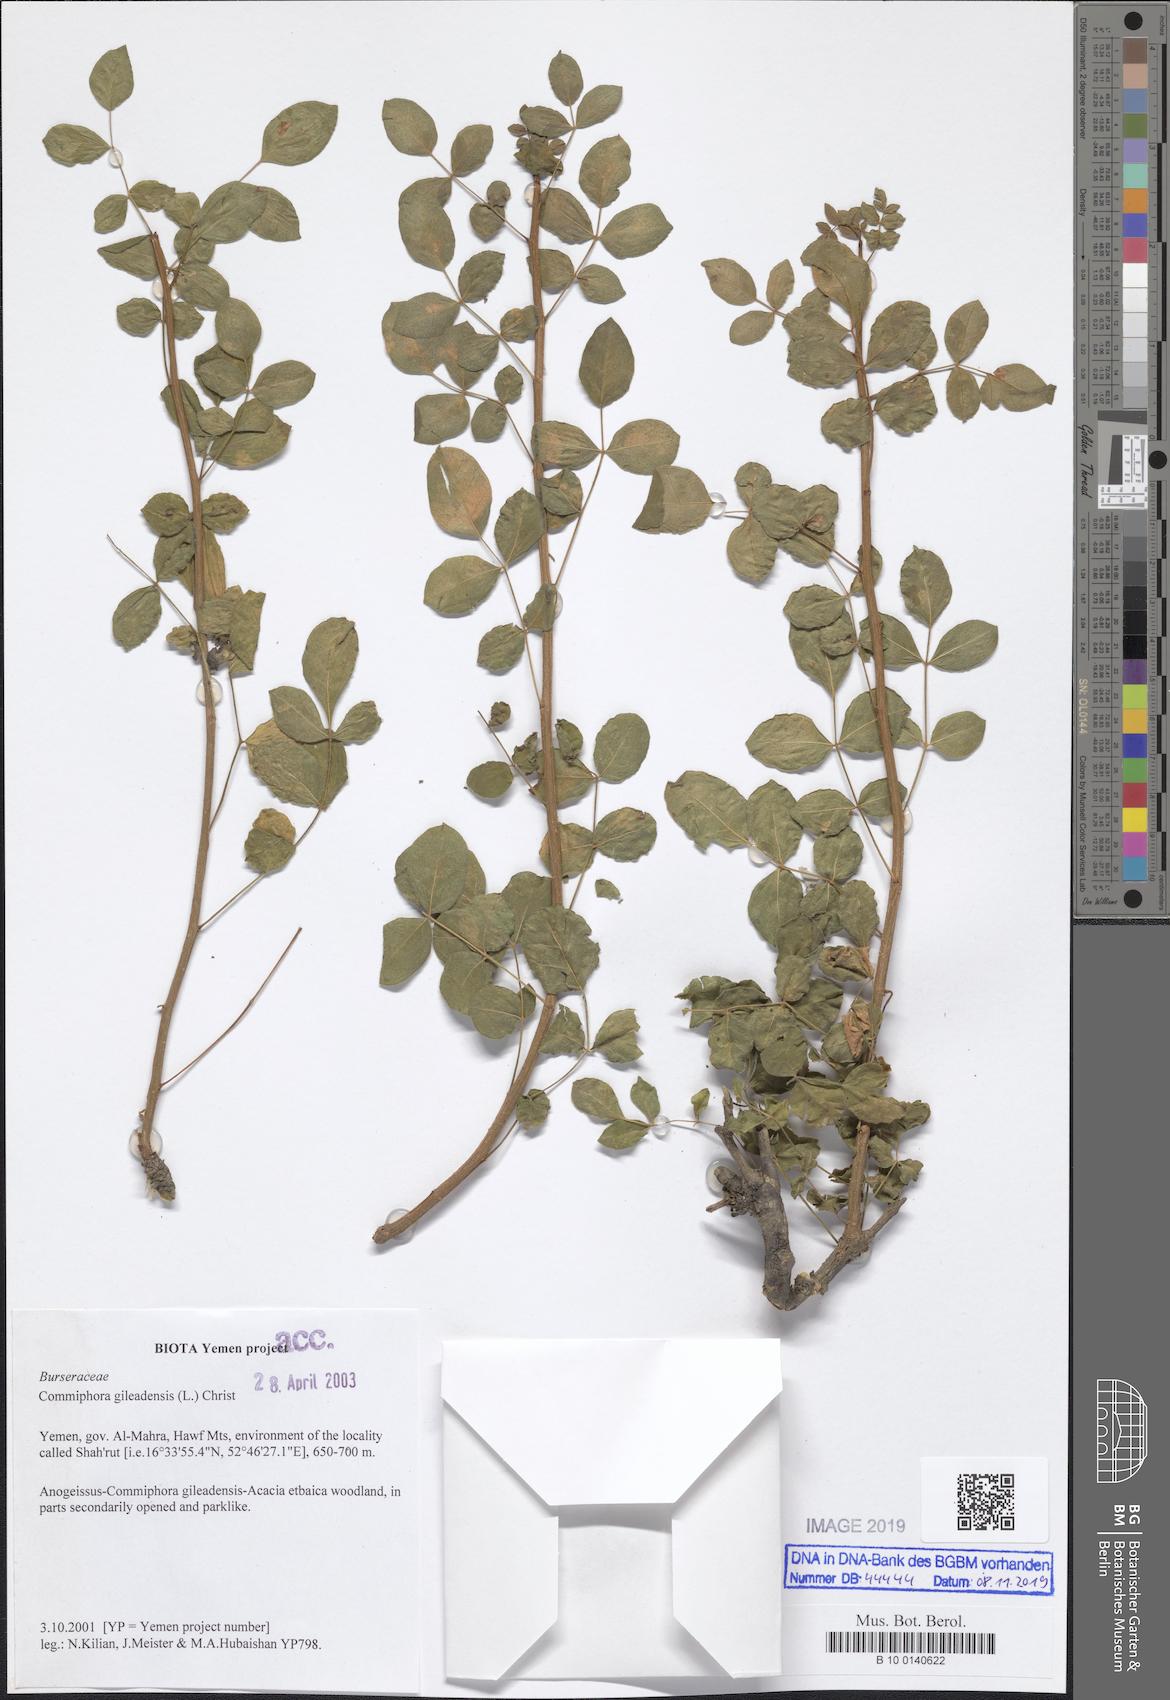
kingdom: Plantae
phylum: Tracheophyta
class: Magnoliopsida
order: Sapindales
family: Burseraceae
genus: Commiphora
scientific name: Commiphora gileadensis
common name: Balm-of-gilead
